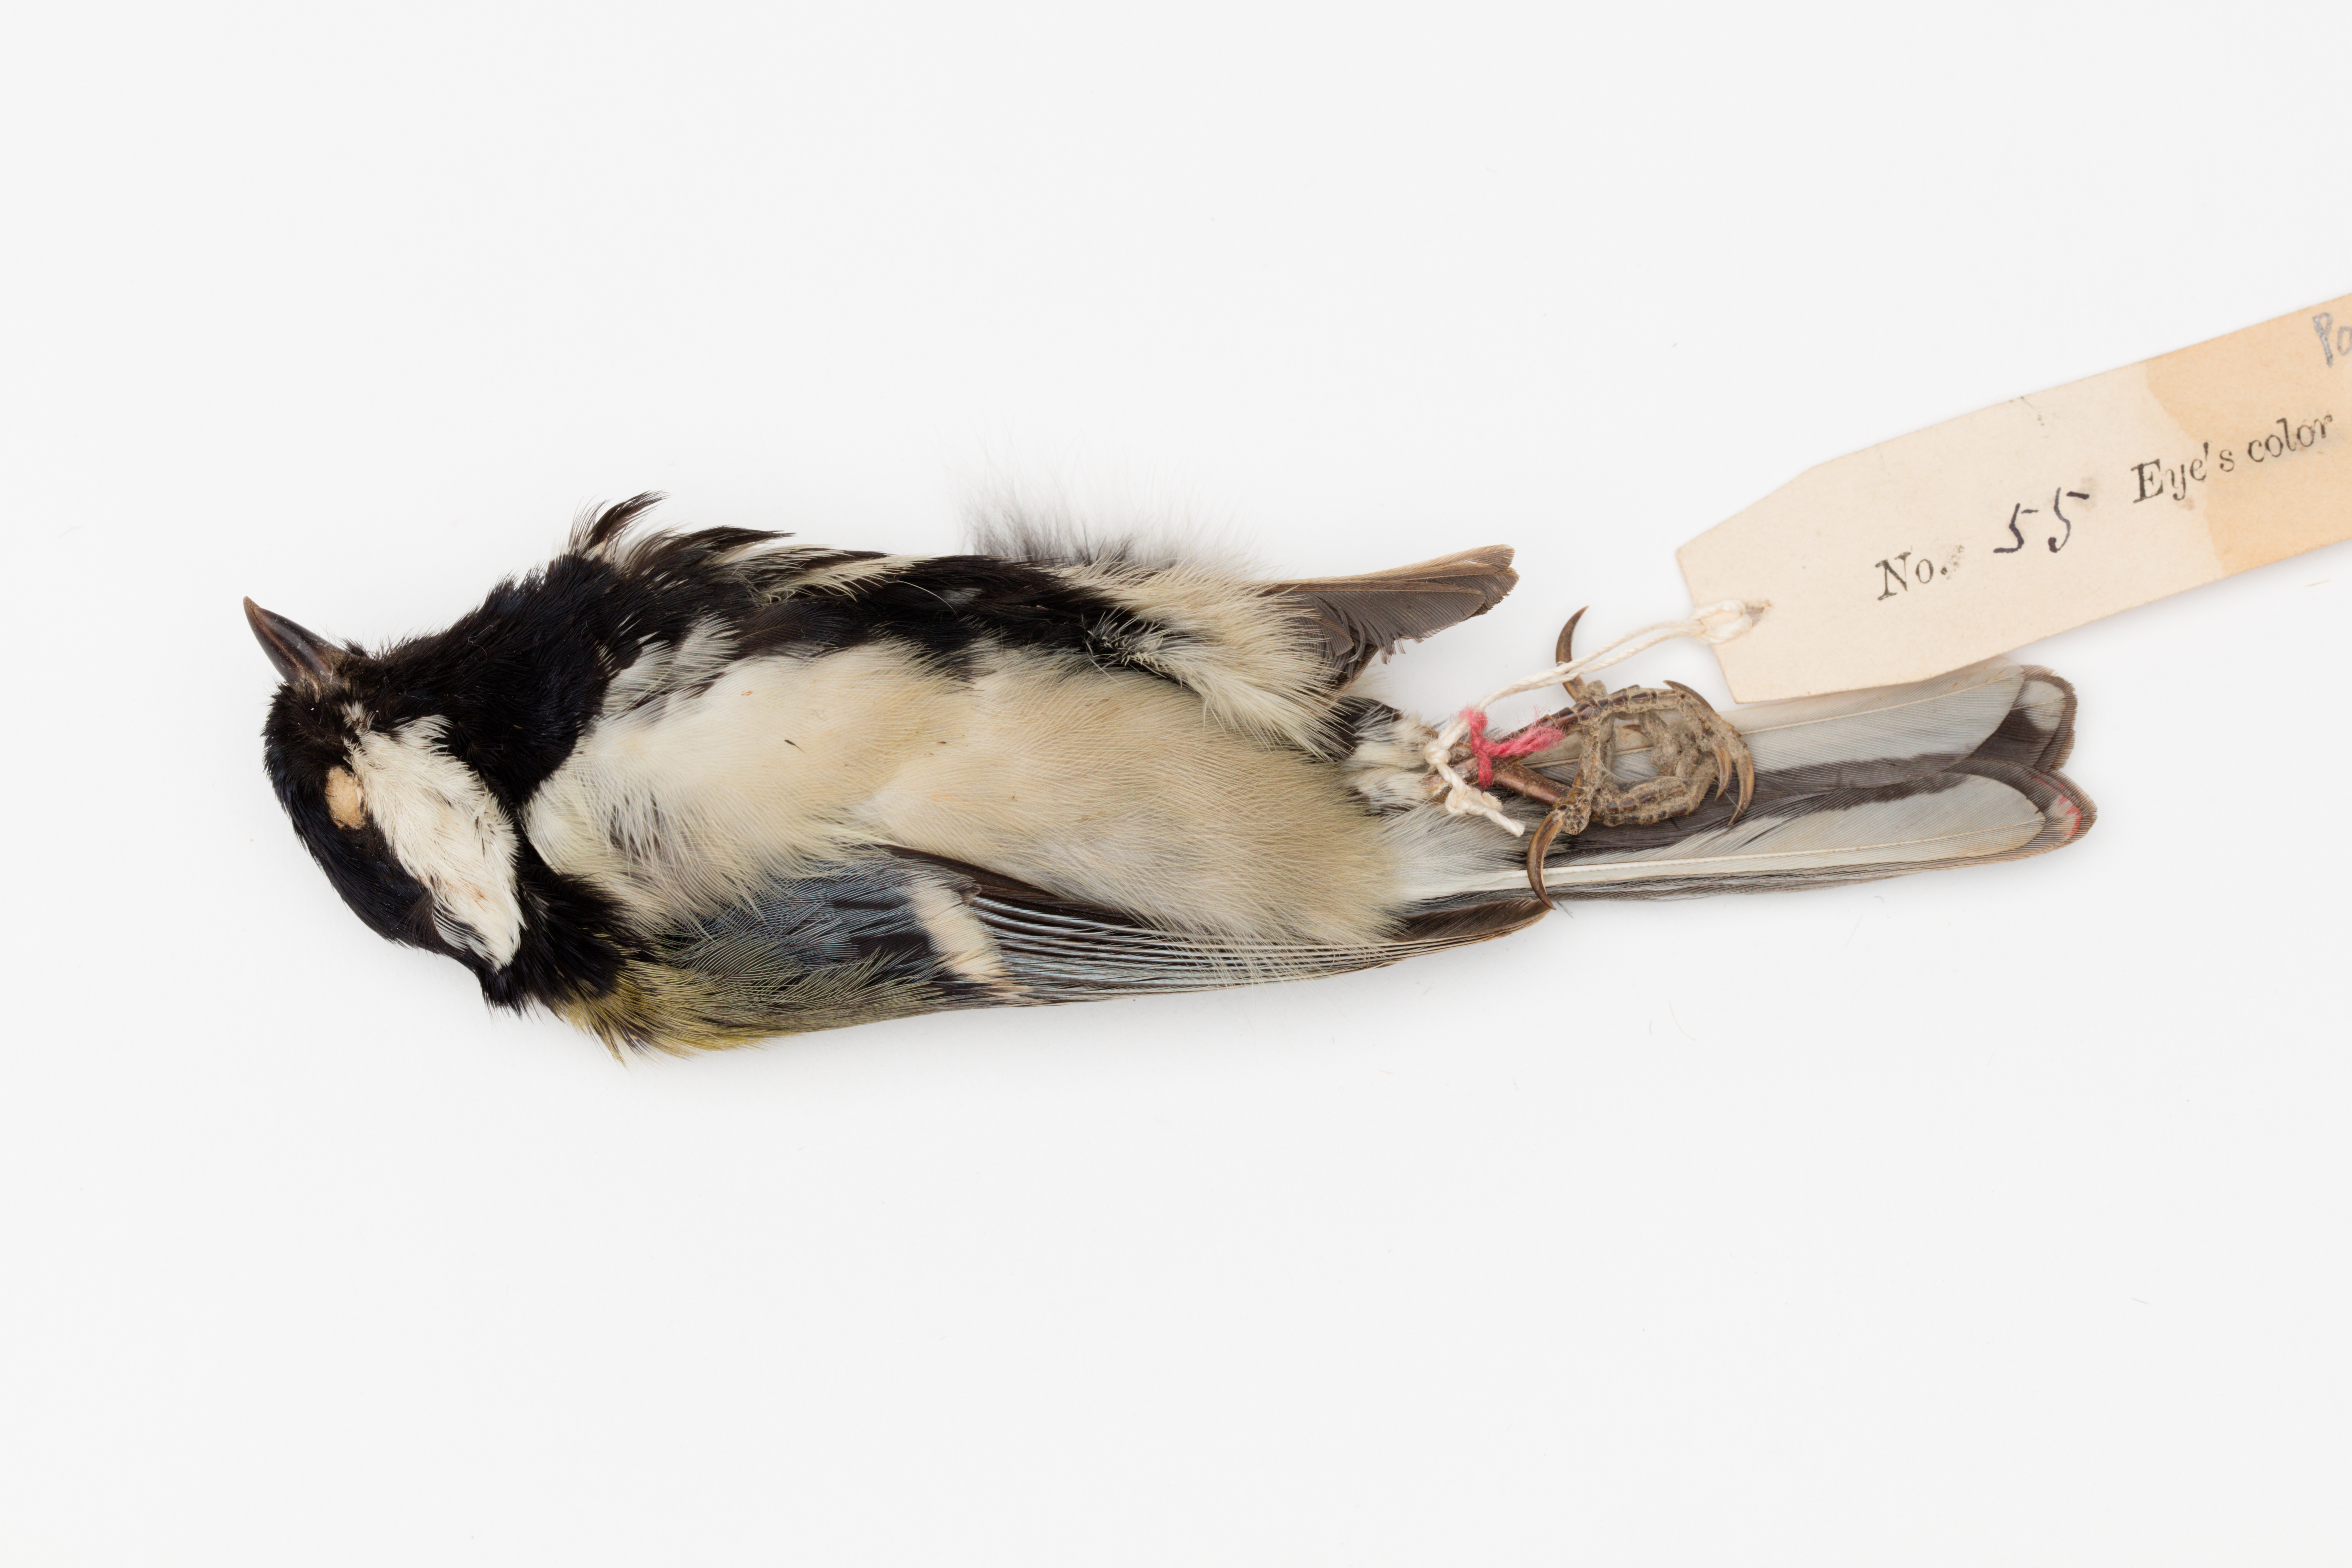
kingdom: Animalia
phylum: Chordata
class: Aves
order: Passeriformes
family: Paridae
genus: Parus
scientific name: Parus major
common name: Great tit
